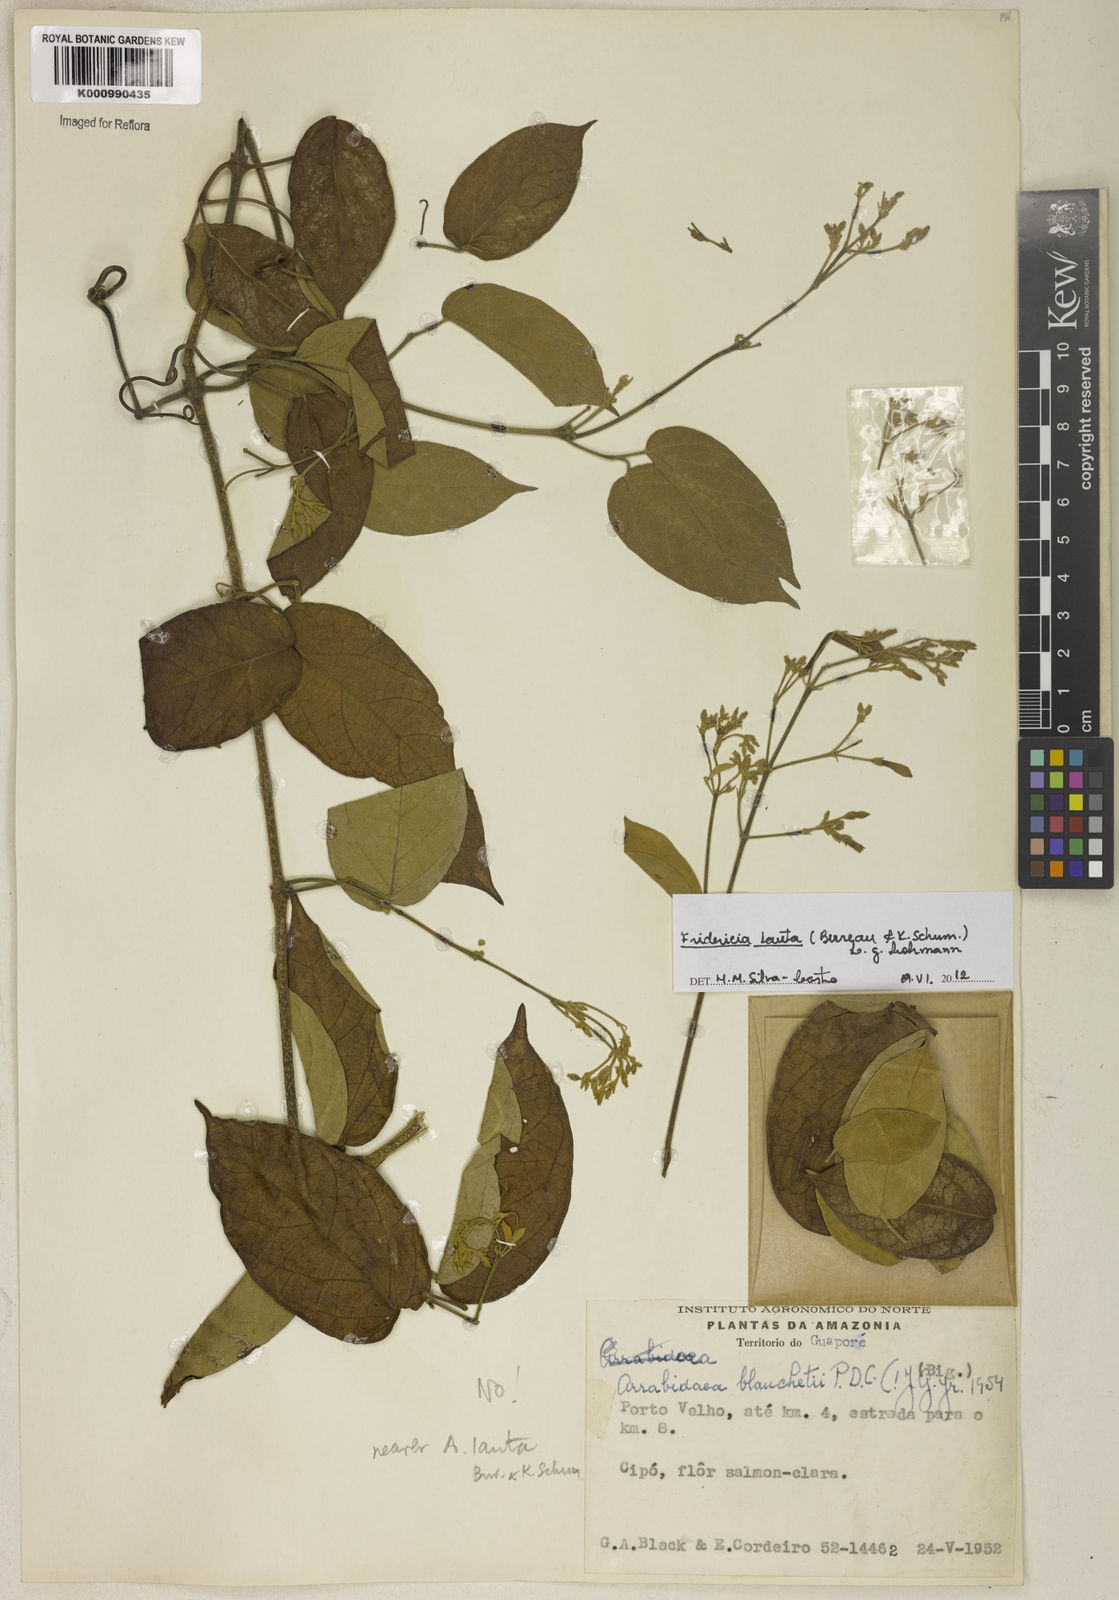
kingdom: Plantae
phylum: Tracheophyta
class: Magnoliopsida
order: Lamiales
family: Bignoniaceae
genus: Fridericia
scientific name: Fridericia lauta
